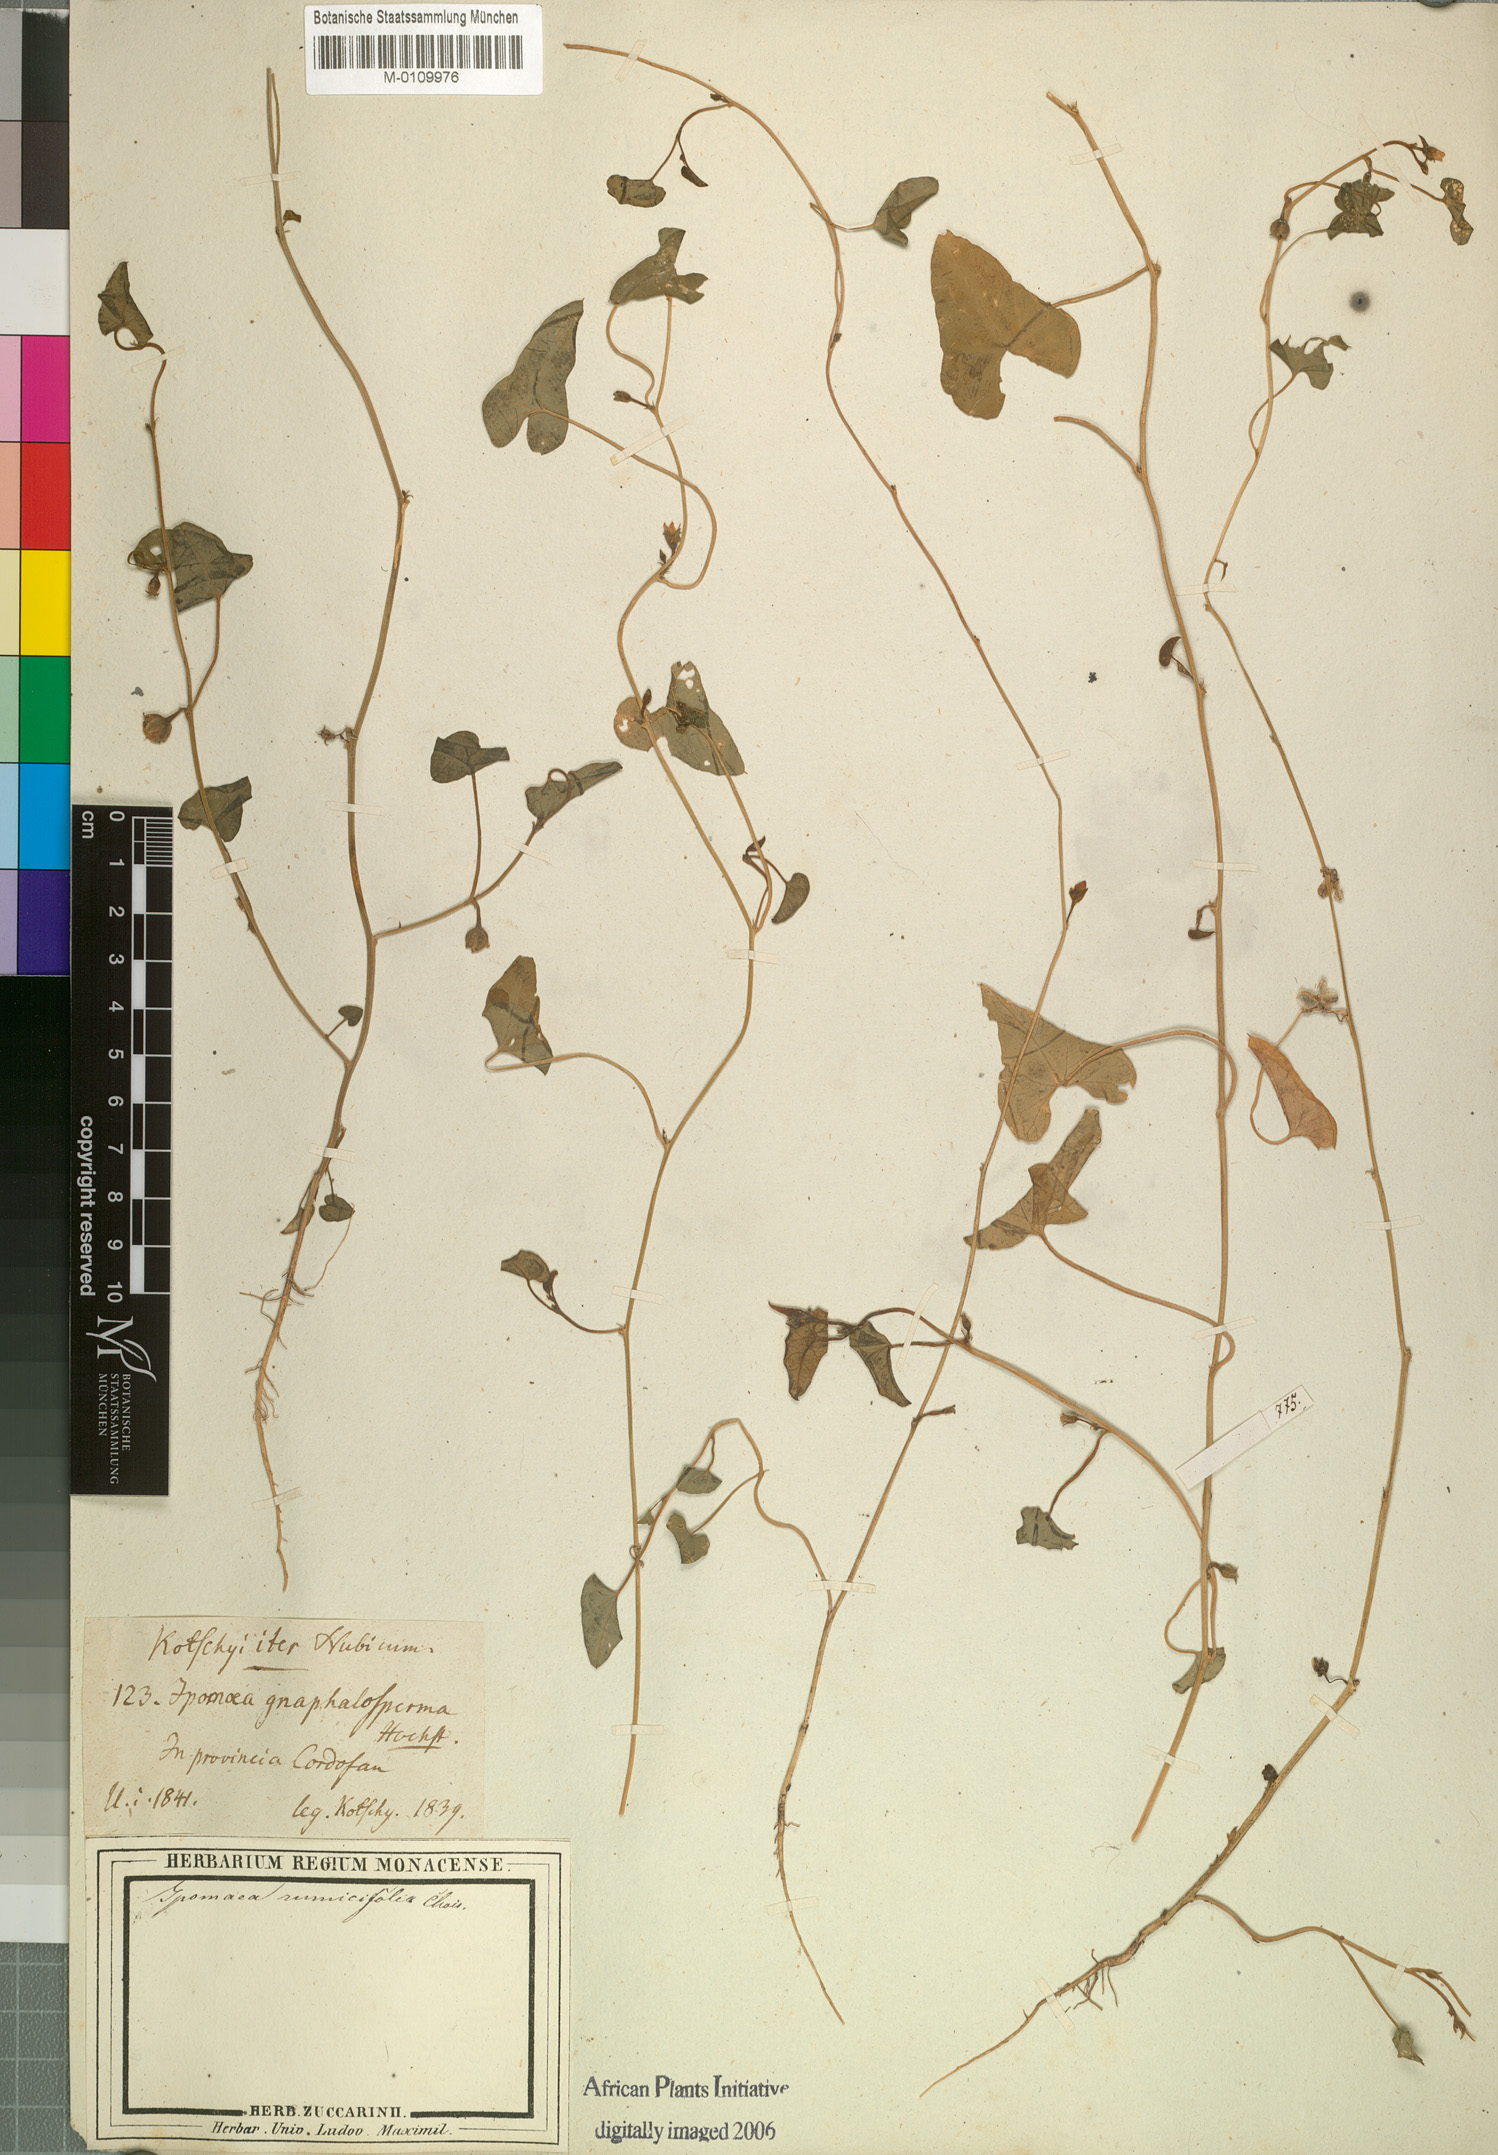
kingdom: Plantae
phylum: Tracheophyta
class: Magnoliopsida
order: Solanales
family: Convolvulaceae
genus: Ipomoea
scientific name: Ipomoea verticillata
